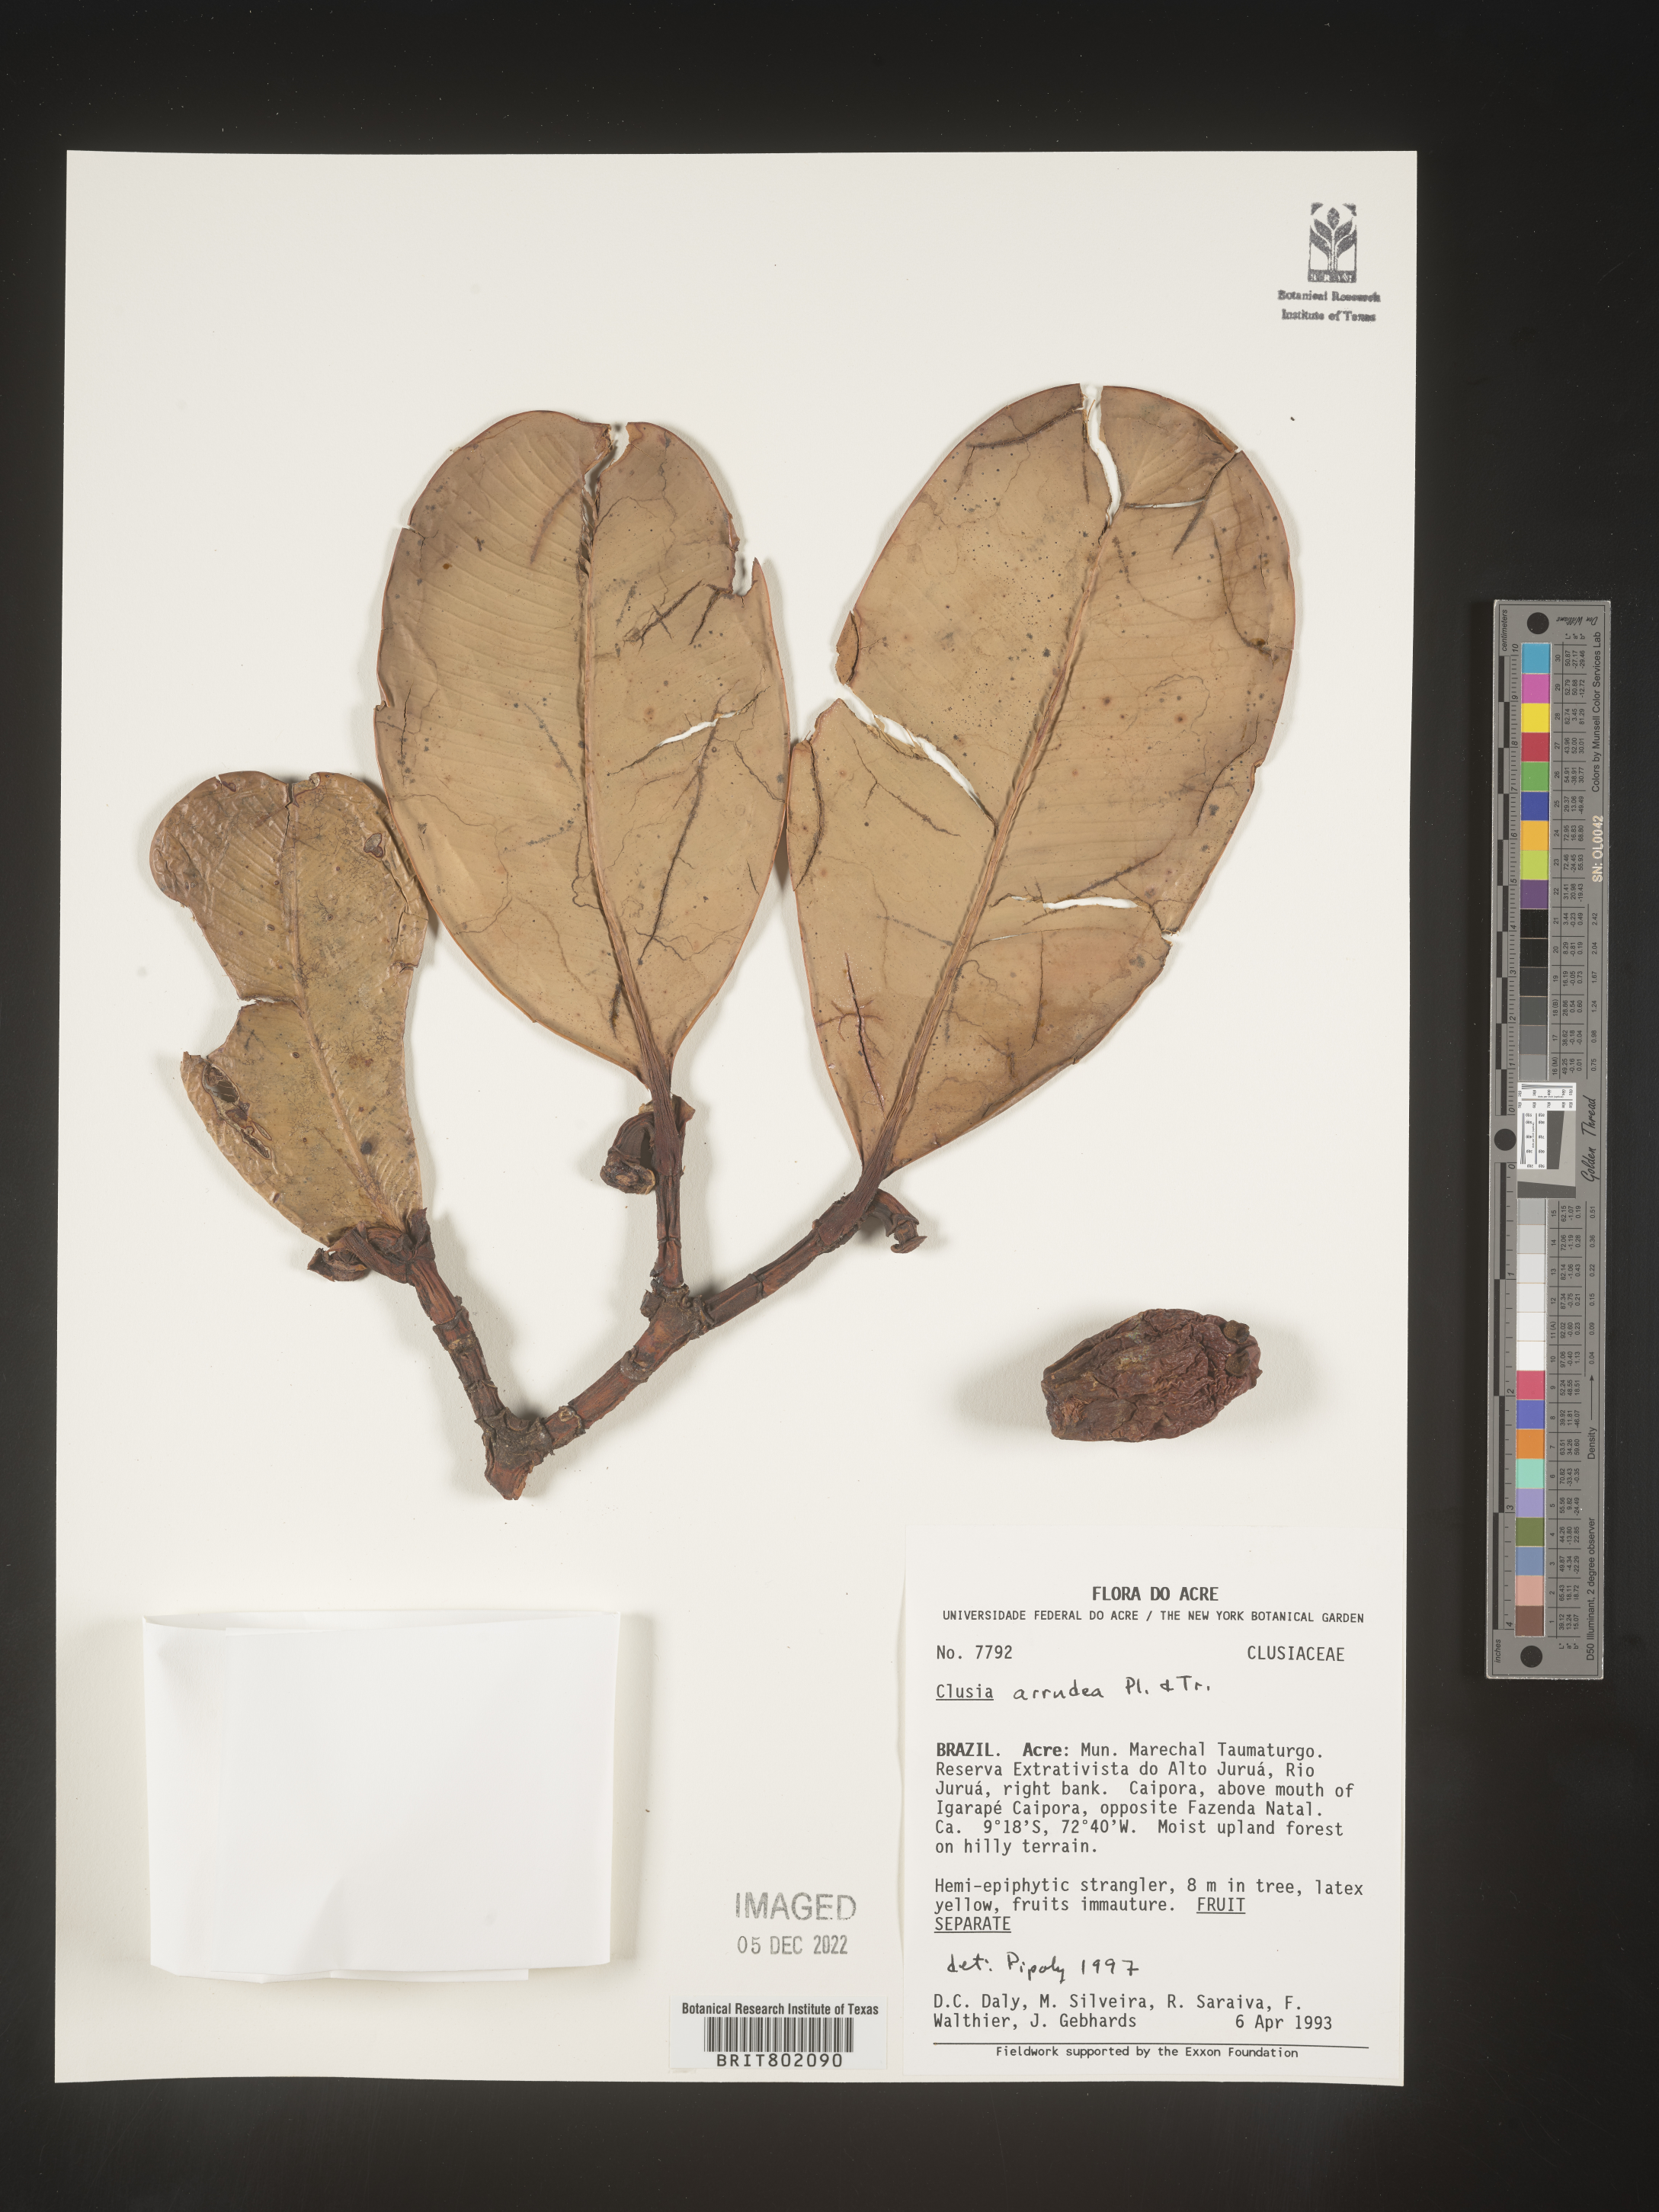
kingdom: Plantae
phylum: Tracheophyta
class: Magnoliopsida
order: Malpighiales
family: Clusiaceae
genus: Clusia
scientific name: Clusia mexiae
